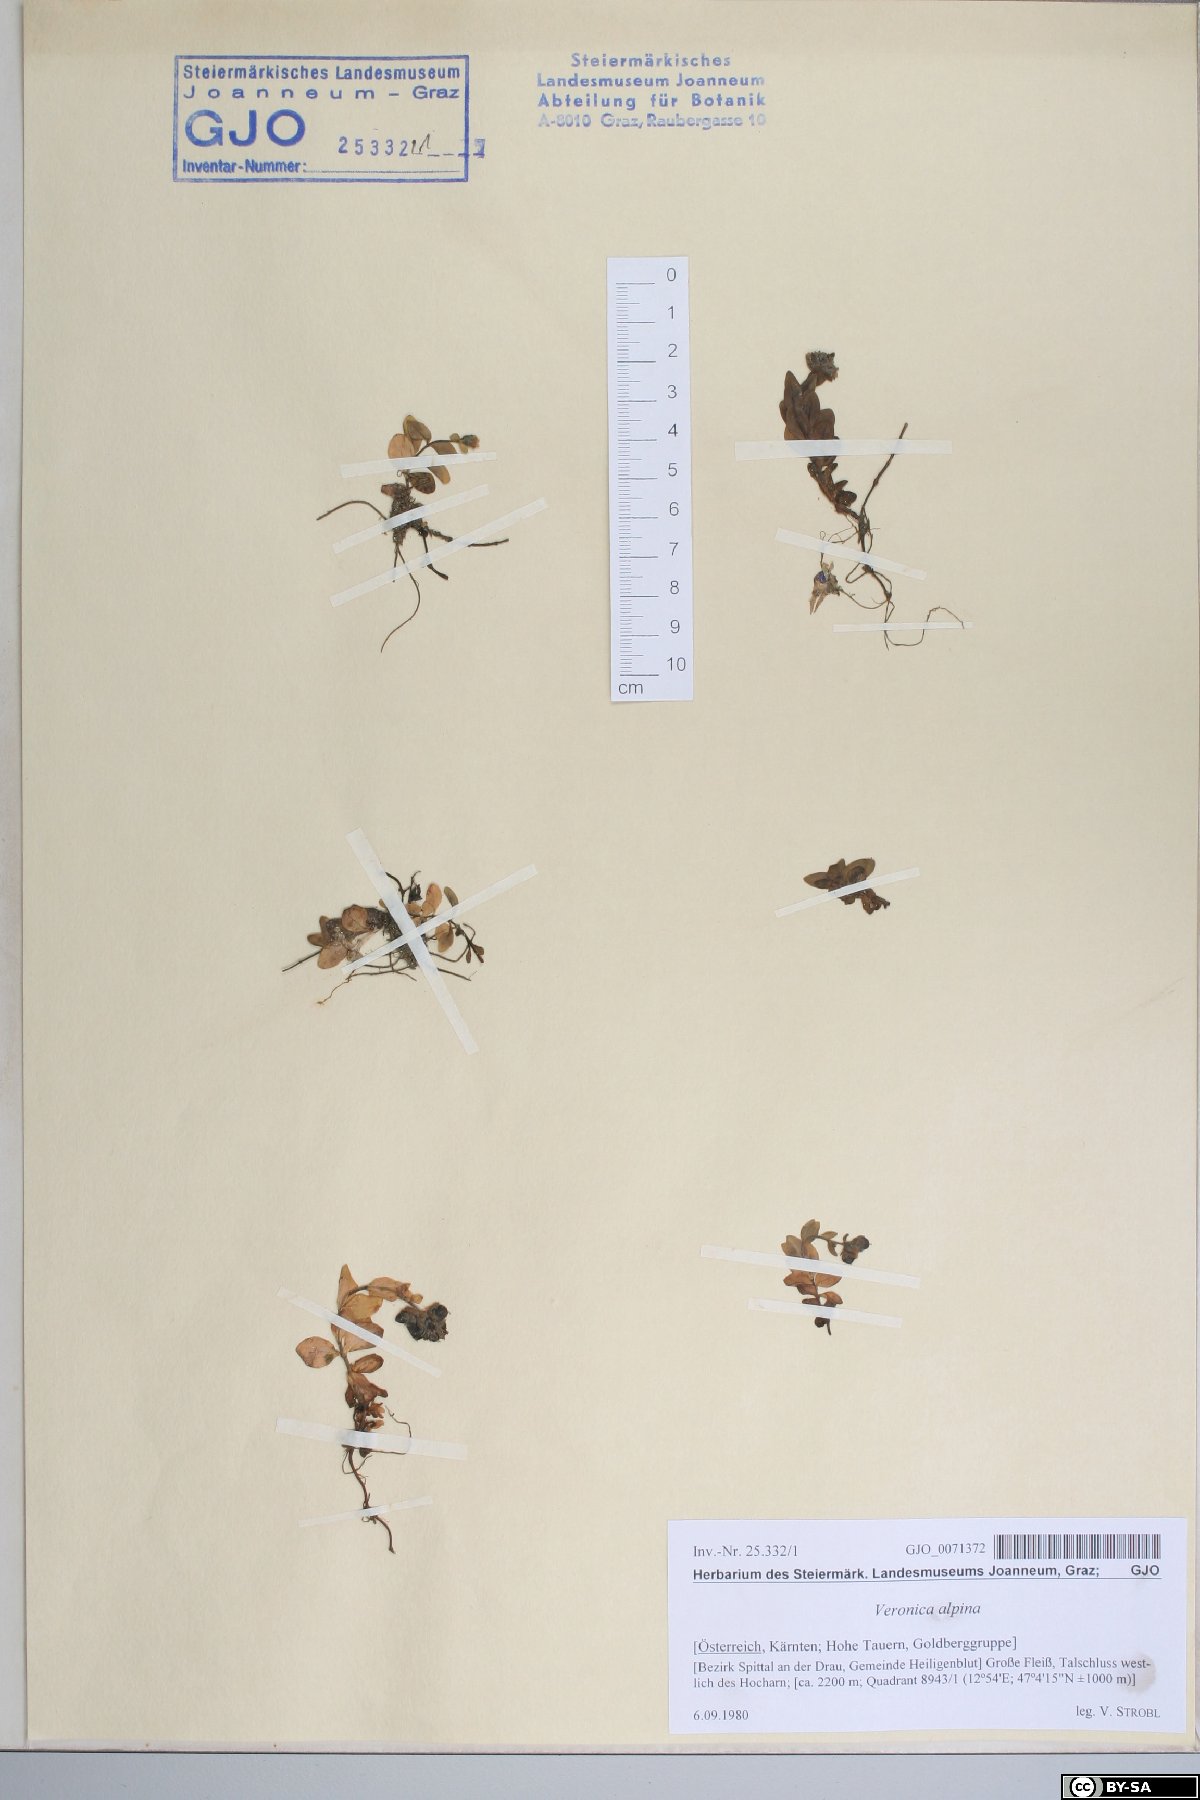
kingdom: Plantae
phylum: Tracheophyta
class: Magnoliopsida
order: Lamiales
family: Plantaginaceae
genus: Veronica
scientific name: Veronica alpina
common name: Alpine speedwell
